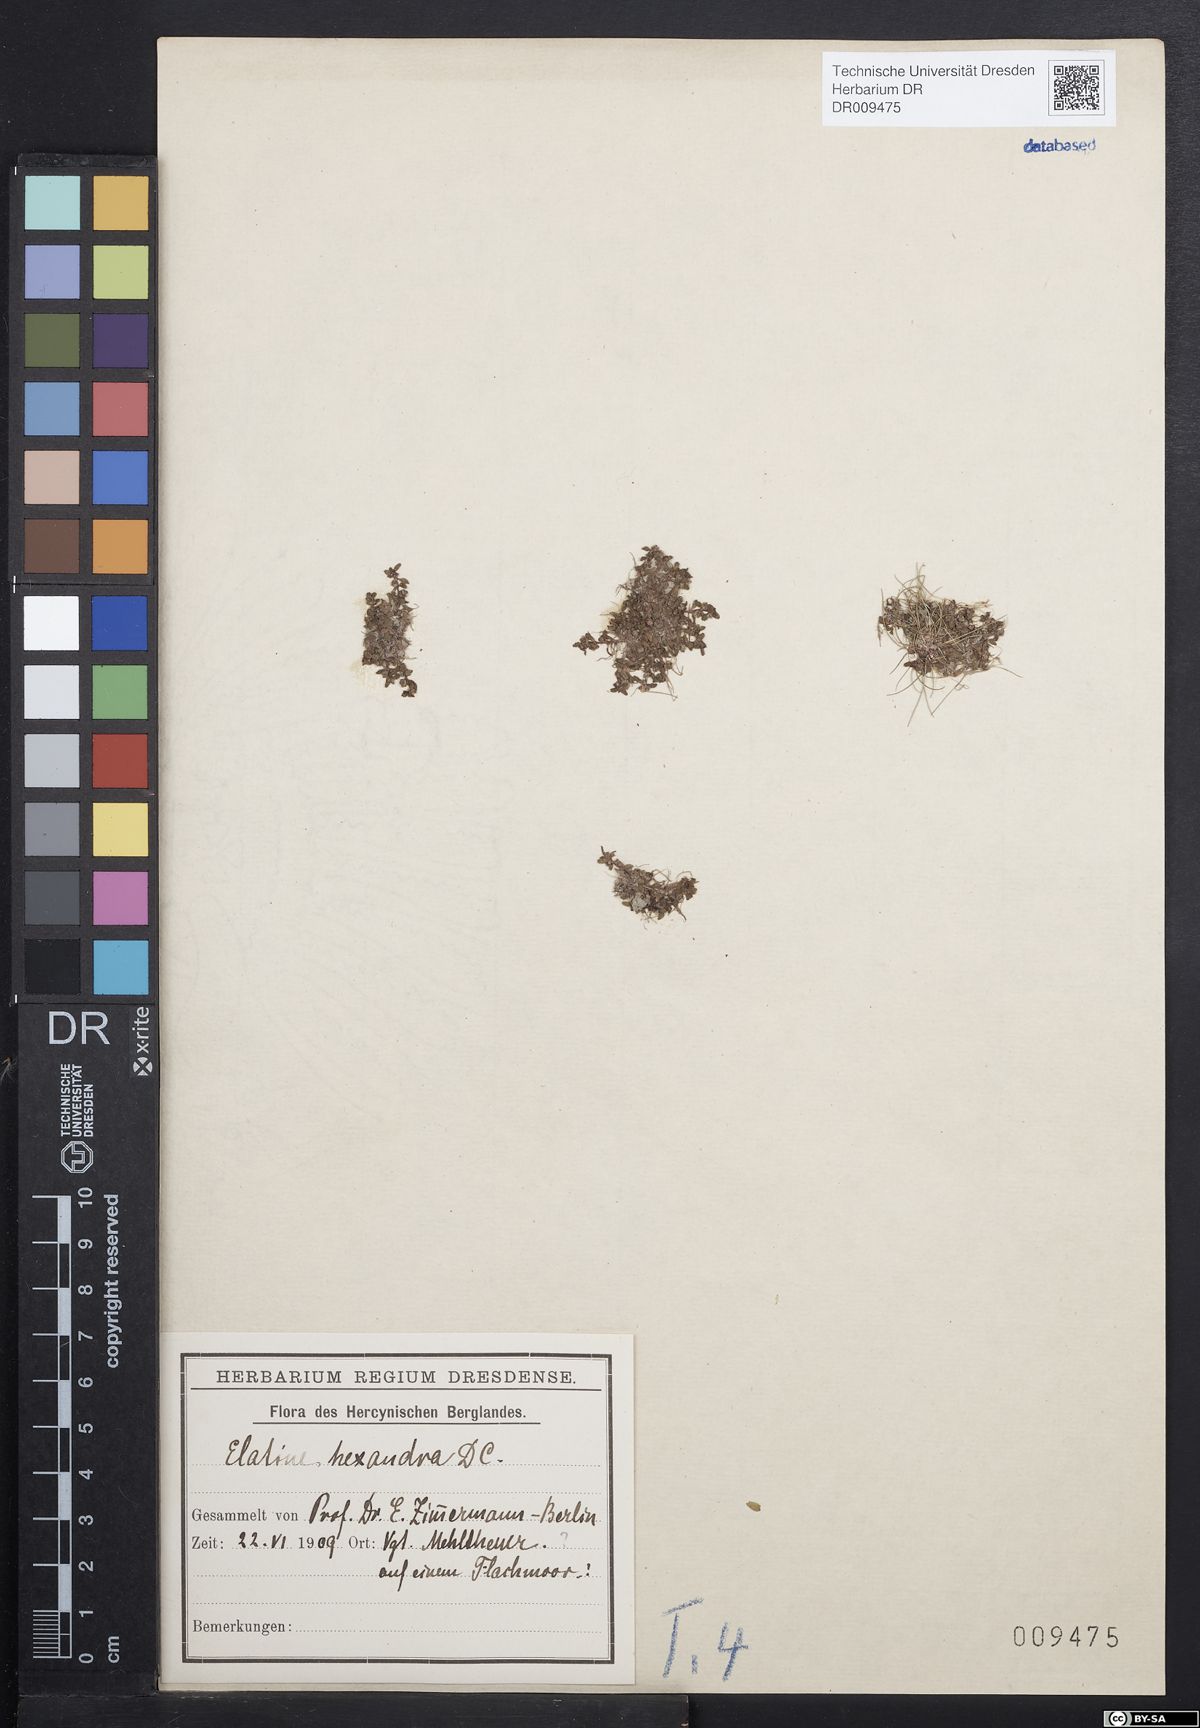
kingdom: Plantae
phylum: Tracheophyta
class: Magnoliopsida
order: Malpighiales
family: Elatinaceae
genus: Elatine
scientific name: Elatine hexandra
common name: Six-stamened waterwort
